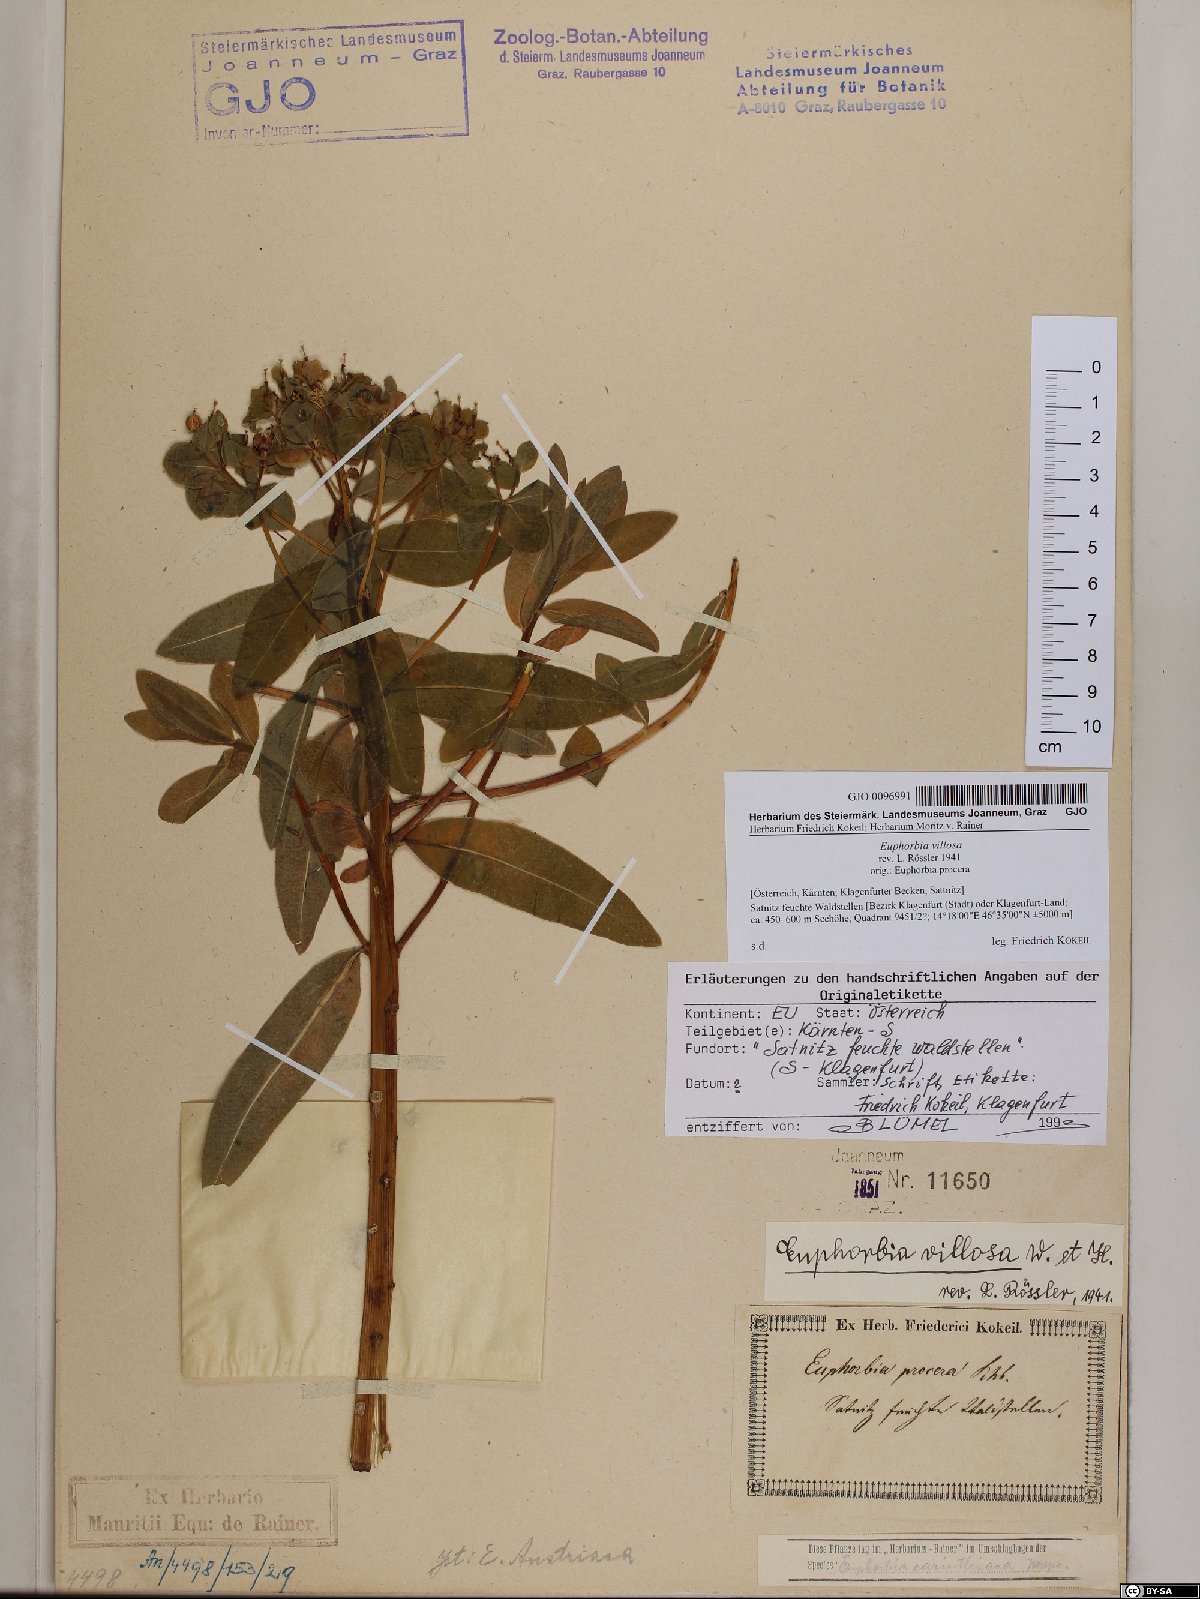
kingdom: Plantae
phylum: Tracheophyta
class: Magnoliopsida
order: Malpighiales
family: Euphorbiaceae
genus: Euphorbia
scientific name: Euphorbia illirica
